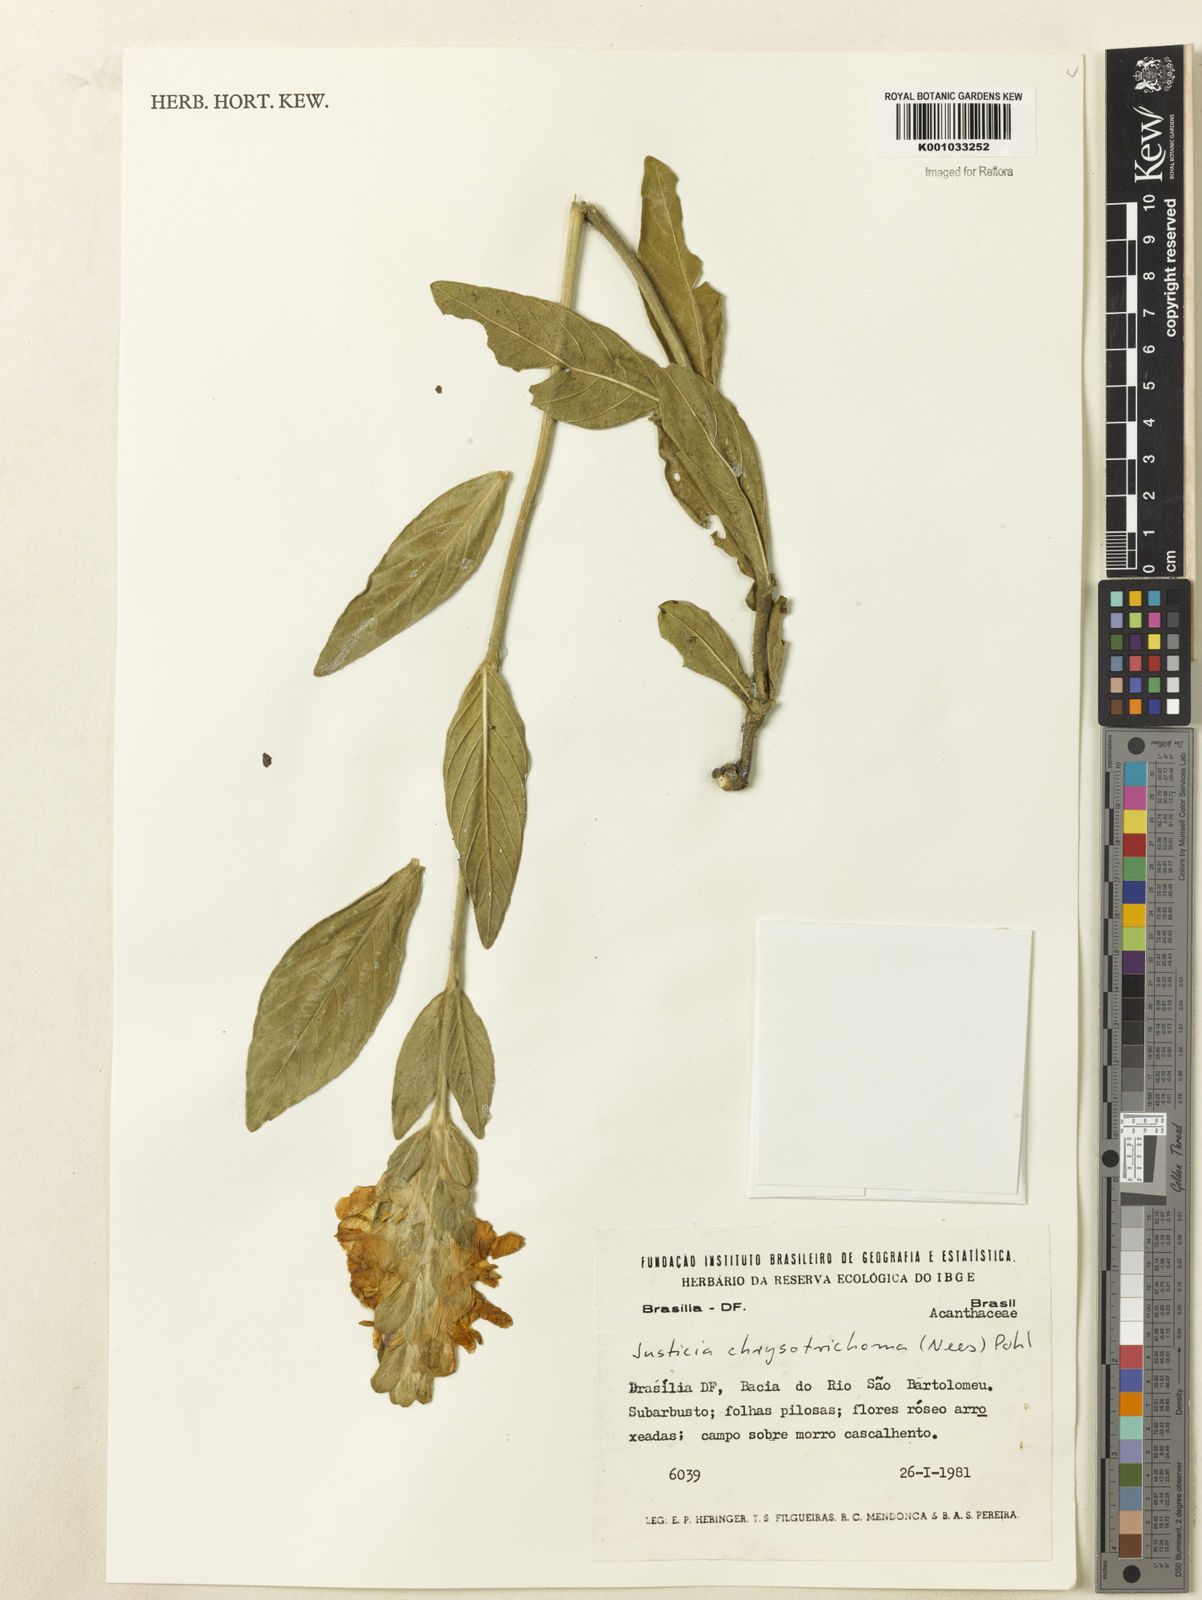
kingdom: Plantae
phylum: Tracheophyta
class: Magnoliopsida
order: Lamiales
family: Acanthaceae
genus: Justicia
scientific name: Justicia chrysotrichoma
